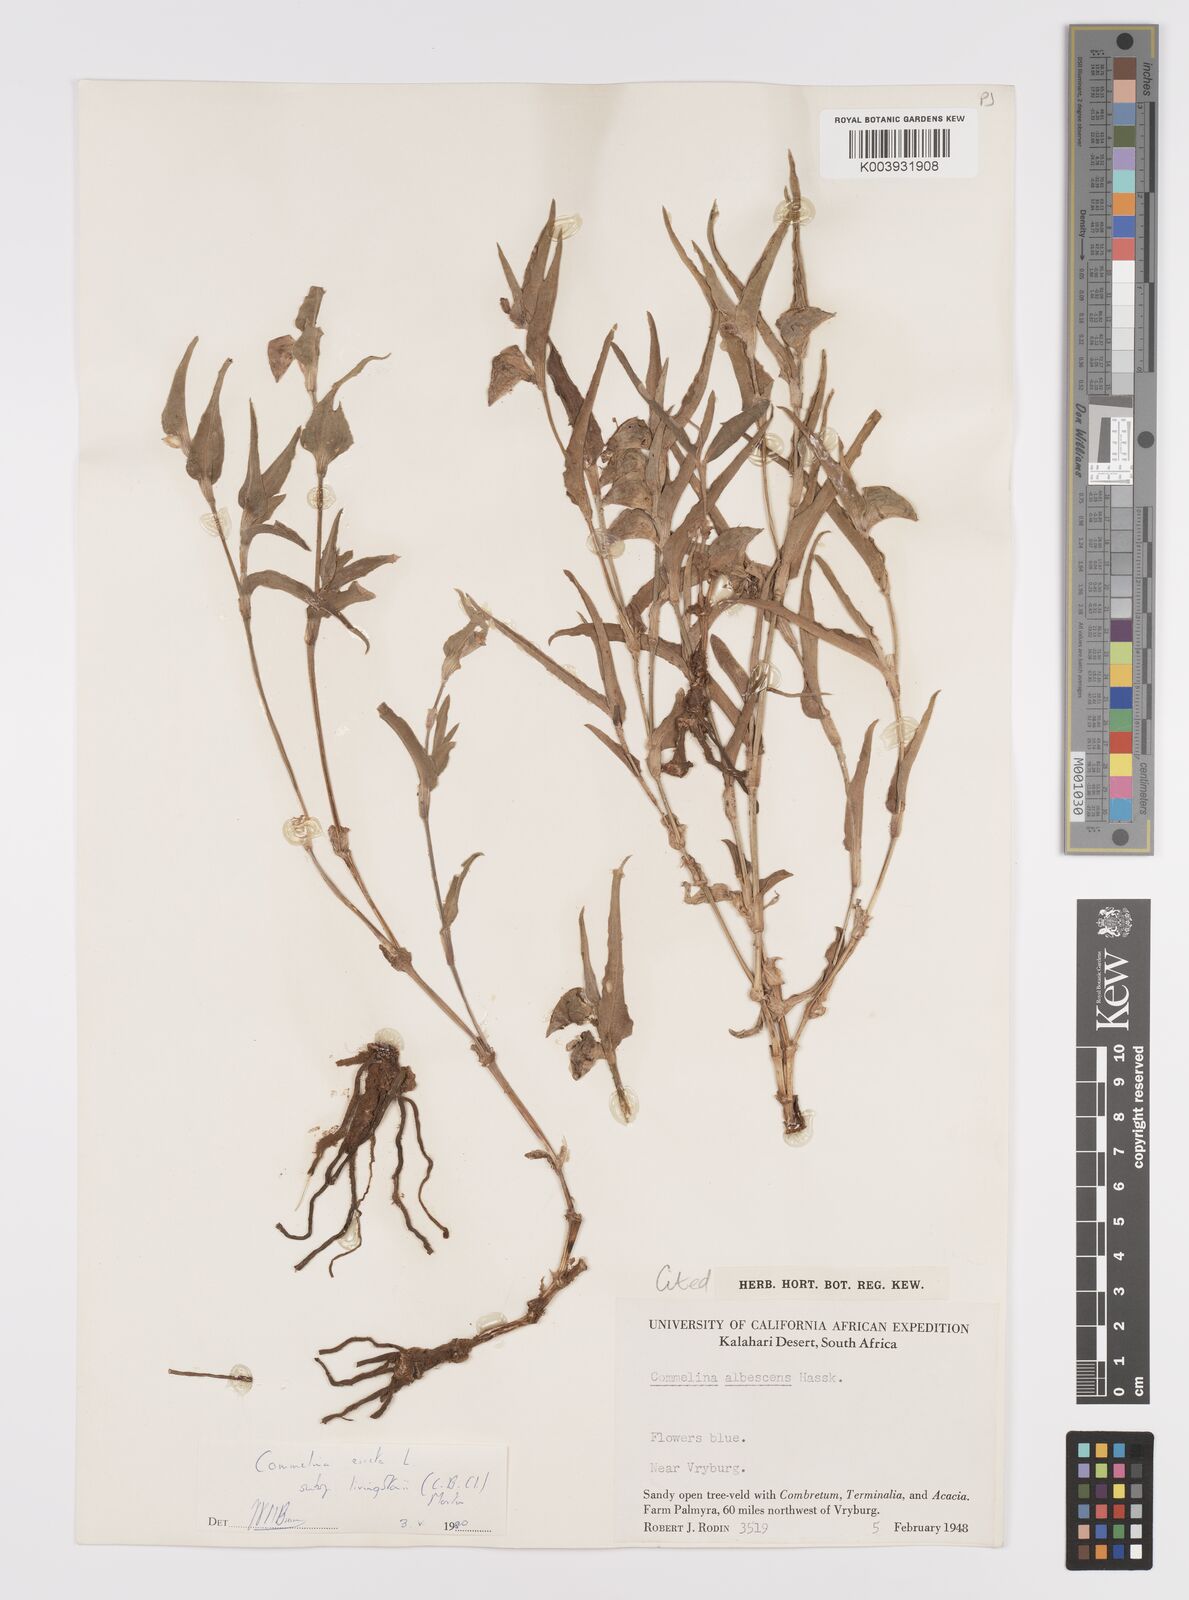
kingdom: Plantae
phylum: Tracheophyta
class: Liliopsida
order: Commelinales
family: Commelinaceae
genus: Commelina
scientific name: Commelina erecta
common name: Blousel blommetjie
